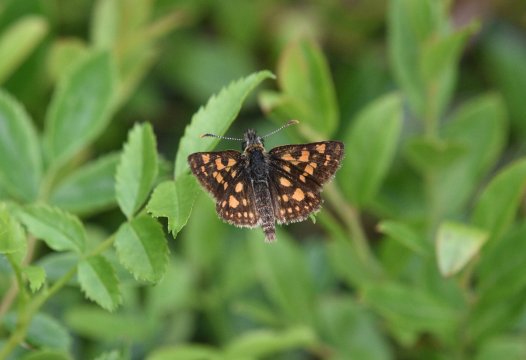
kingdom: Animalia
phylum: Arthropoda
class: Insecta
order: Lepidoptera
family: Hesperiidae
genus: Carterocephalus
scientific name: Carterocephalus palaemon
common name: Chequered Skipper
